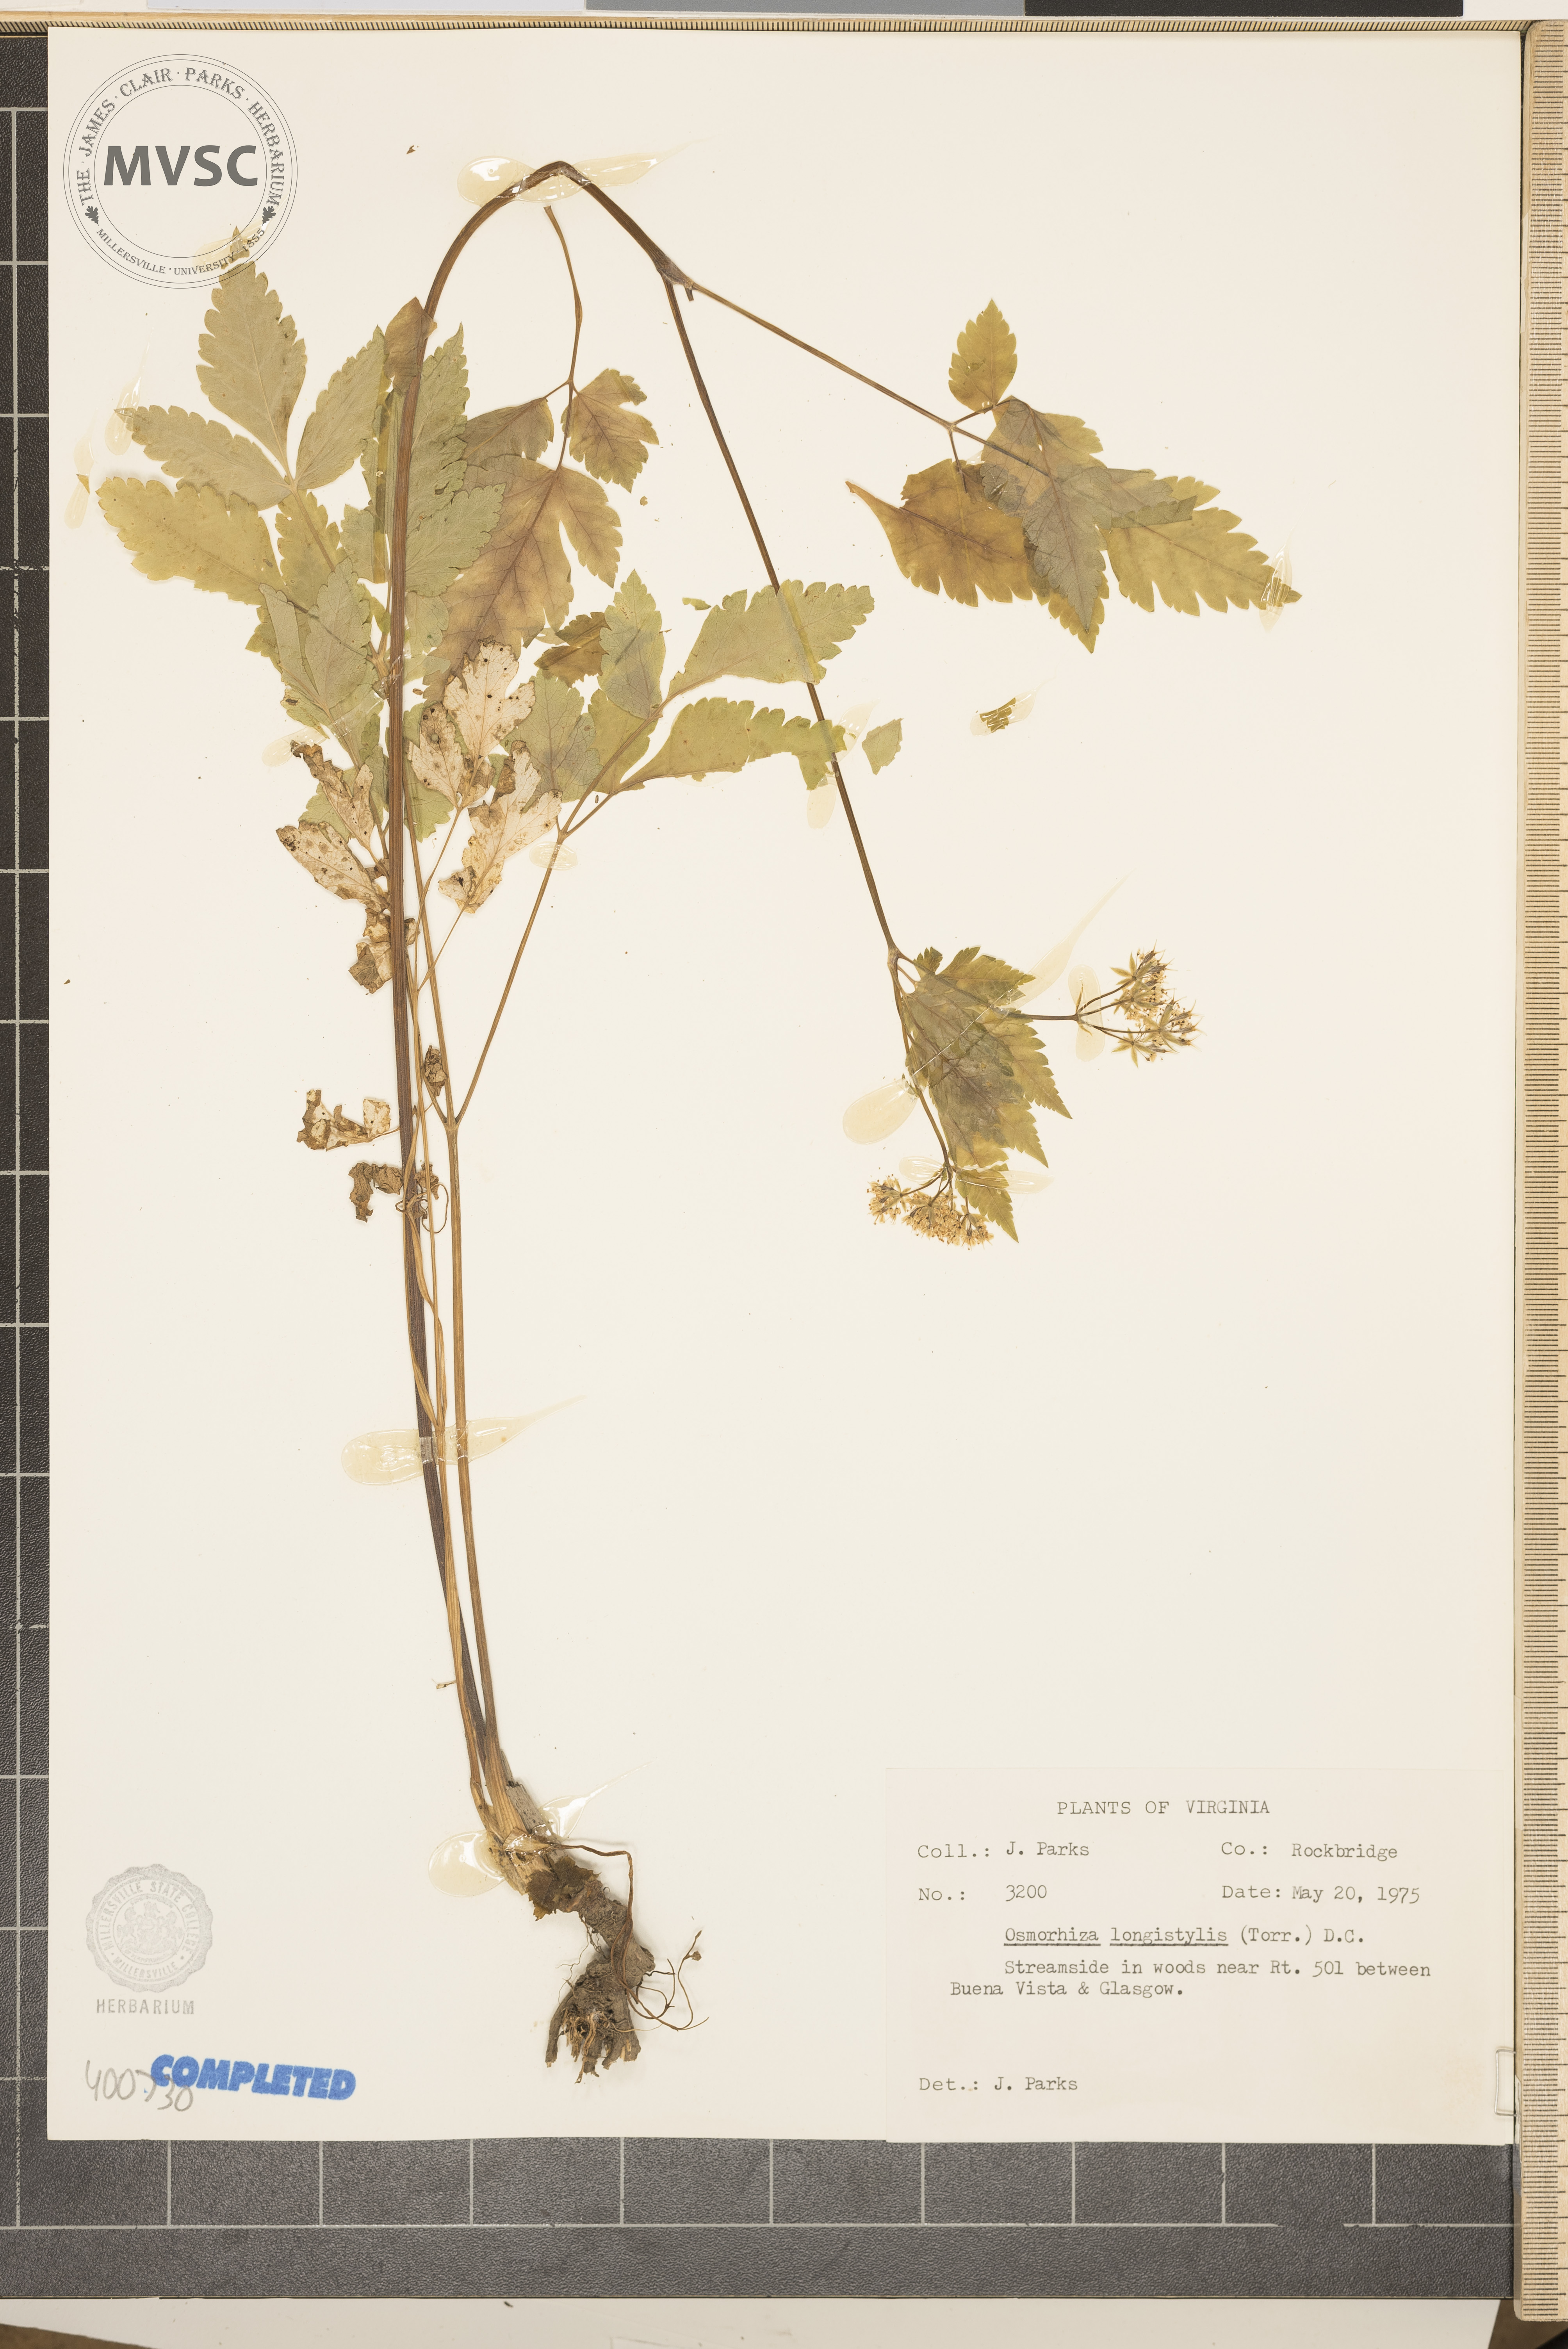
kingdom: Plantae
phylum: Tracheophyta
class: Magnoliopsida
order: Apiales
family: Apiaceae
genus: Osmorhiza
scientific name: Osmorhiza longistylis
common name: Longstyle Sweetroot
